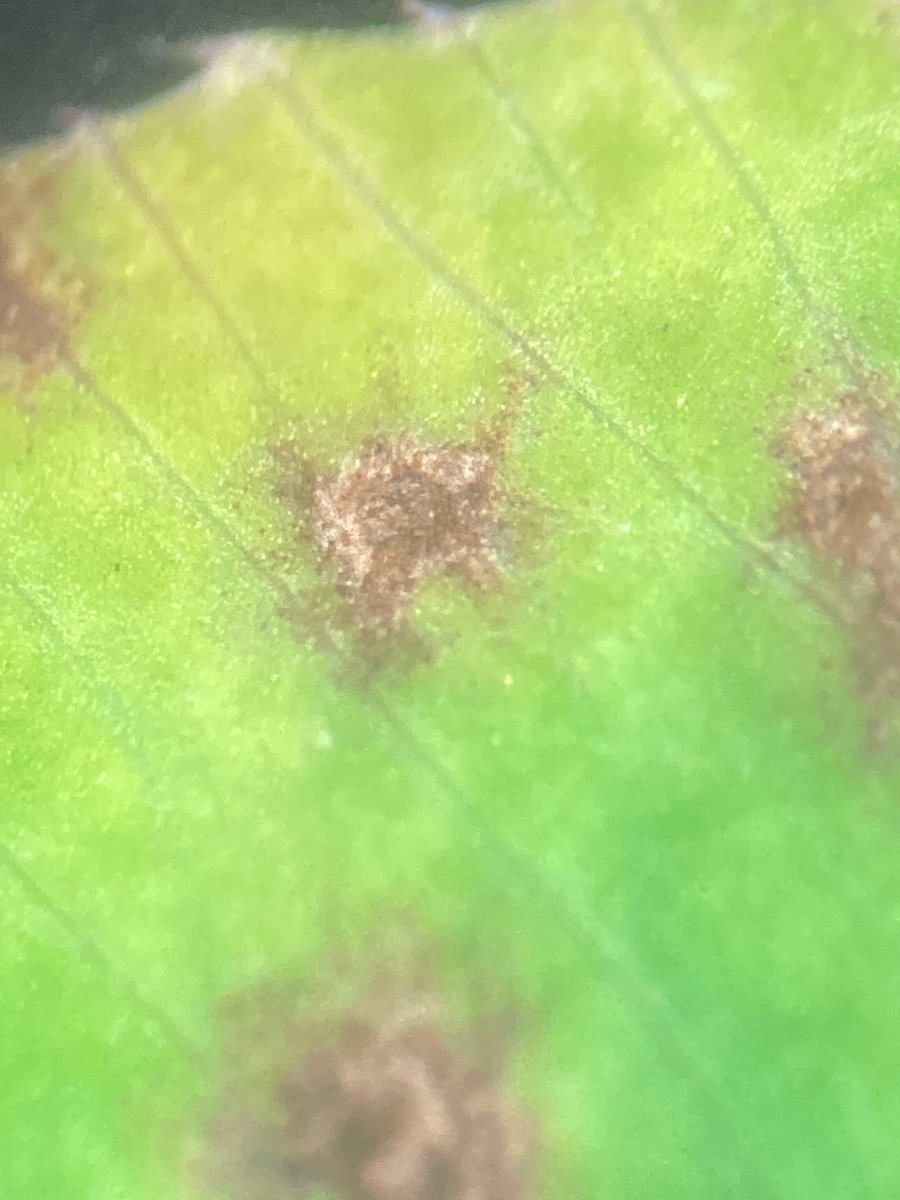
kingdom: Fungi
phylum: Ascomycota
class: Leotiomycetes
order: Helotiales
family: Drepanopezizaceae
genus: Pseudopeziza
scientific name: Pseudopeziza trifolii
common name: kløver-bladskive
